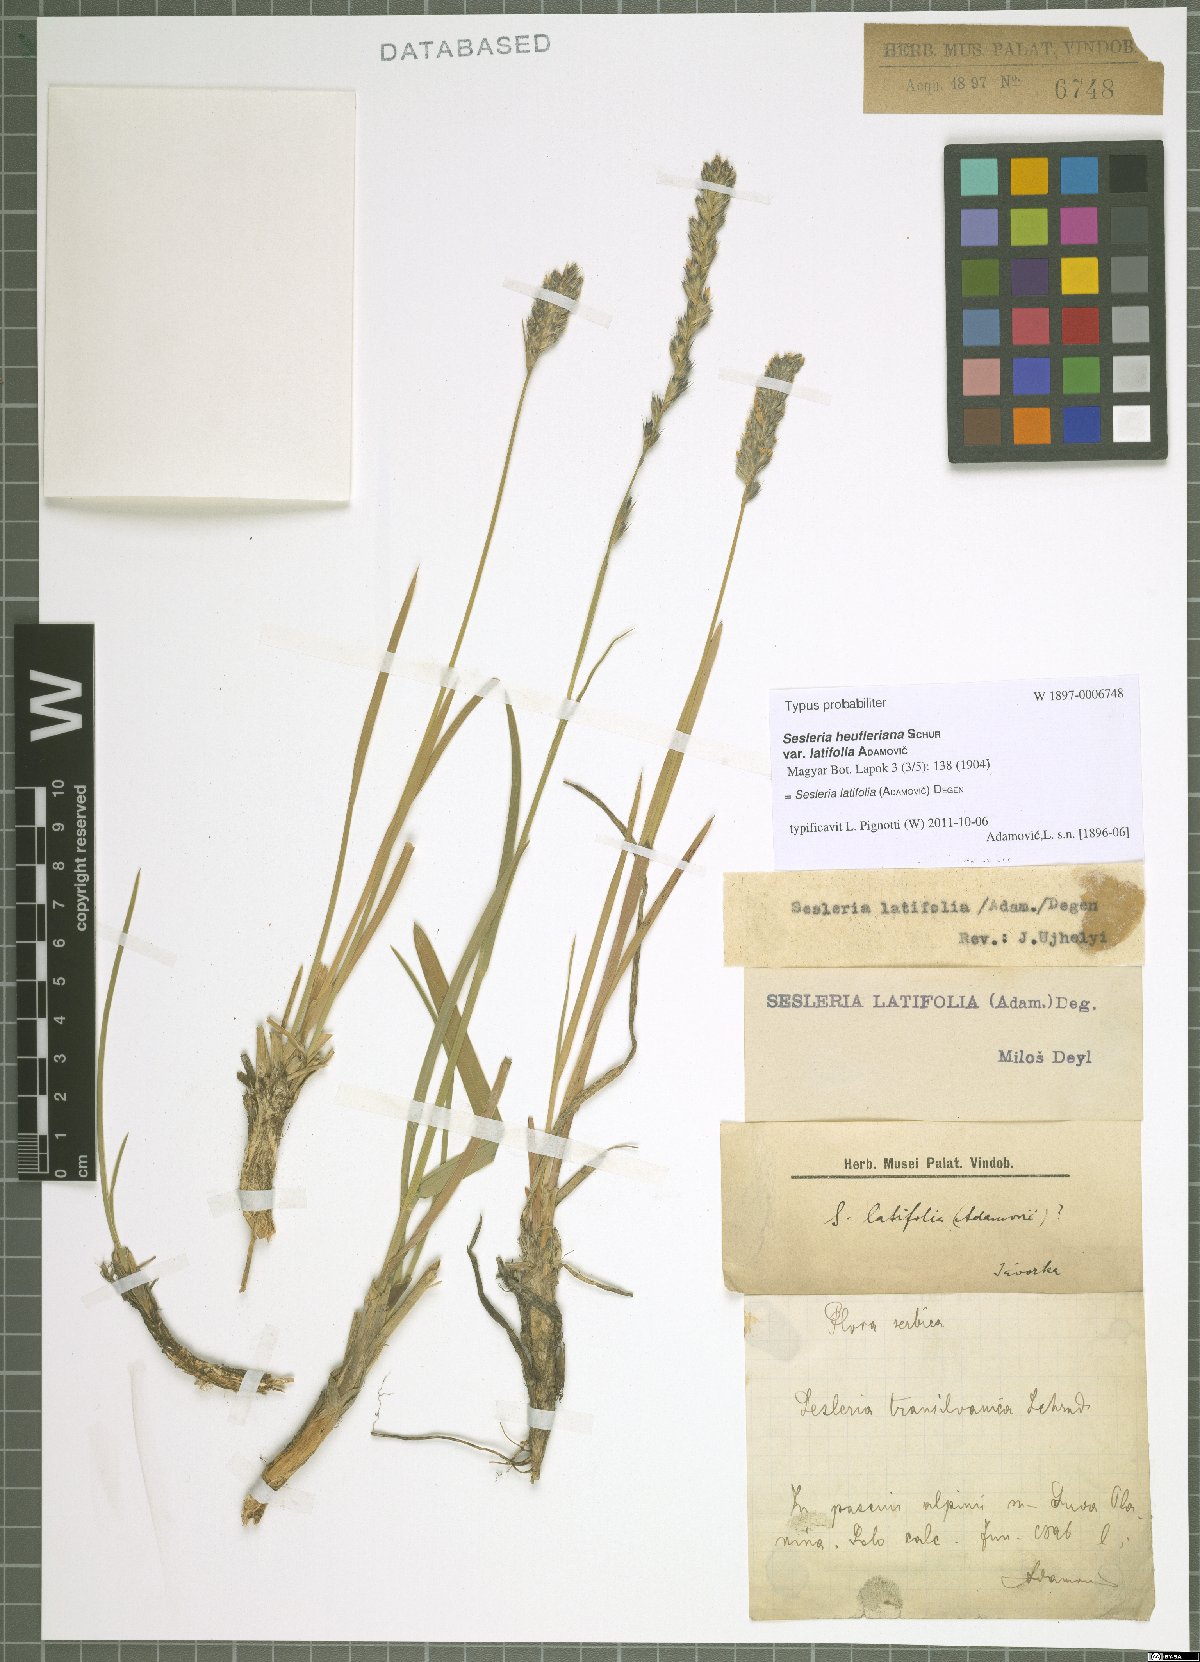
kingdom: Plantae
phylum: Tracheophyta
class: Liliopsida
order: Poales
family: Poaceae
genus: Sesleria
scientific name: Sesleria latifolia
